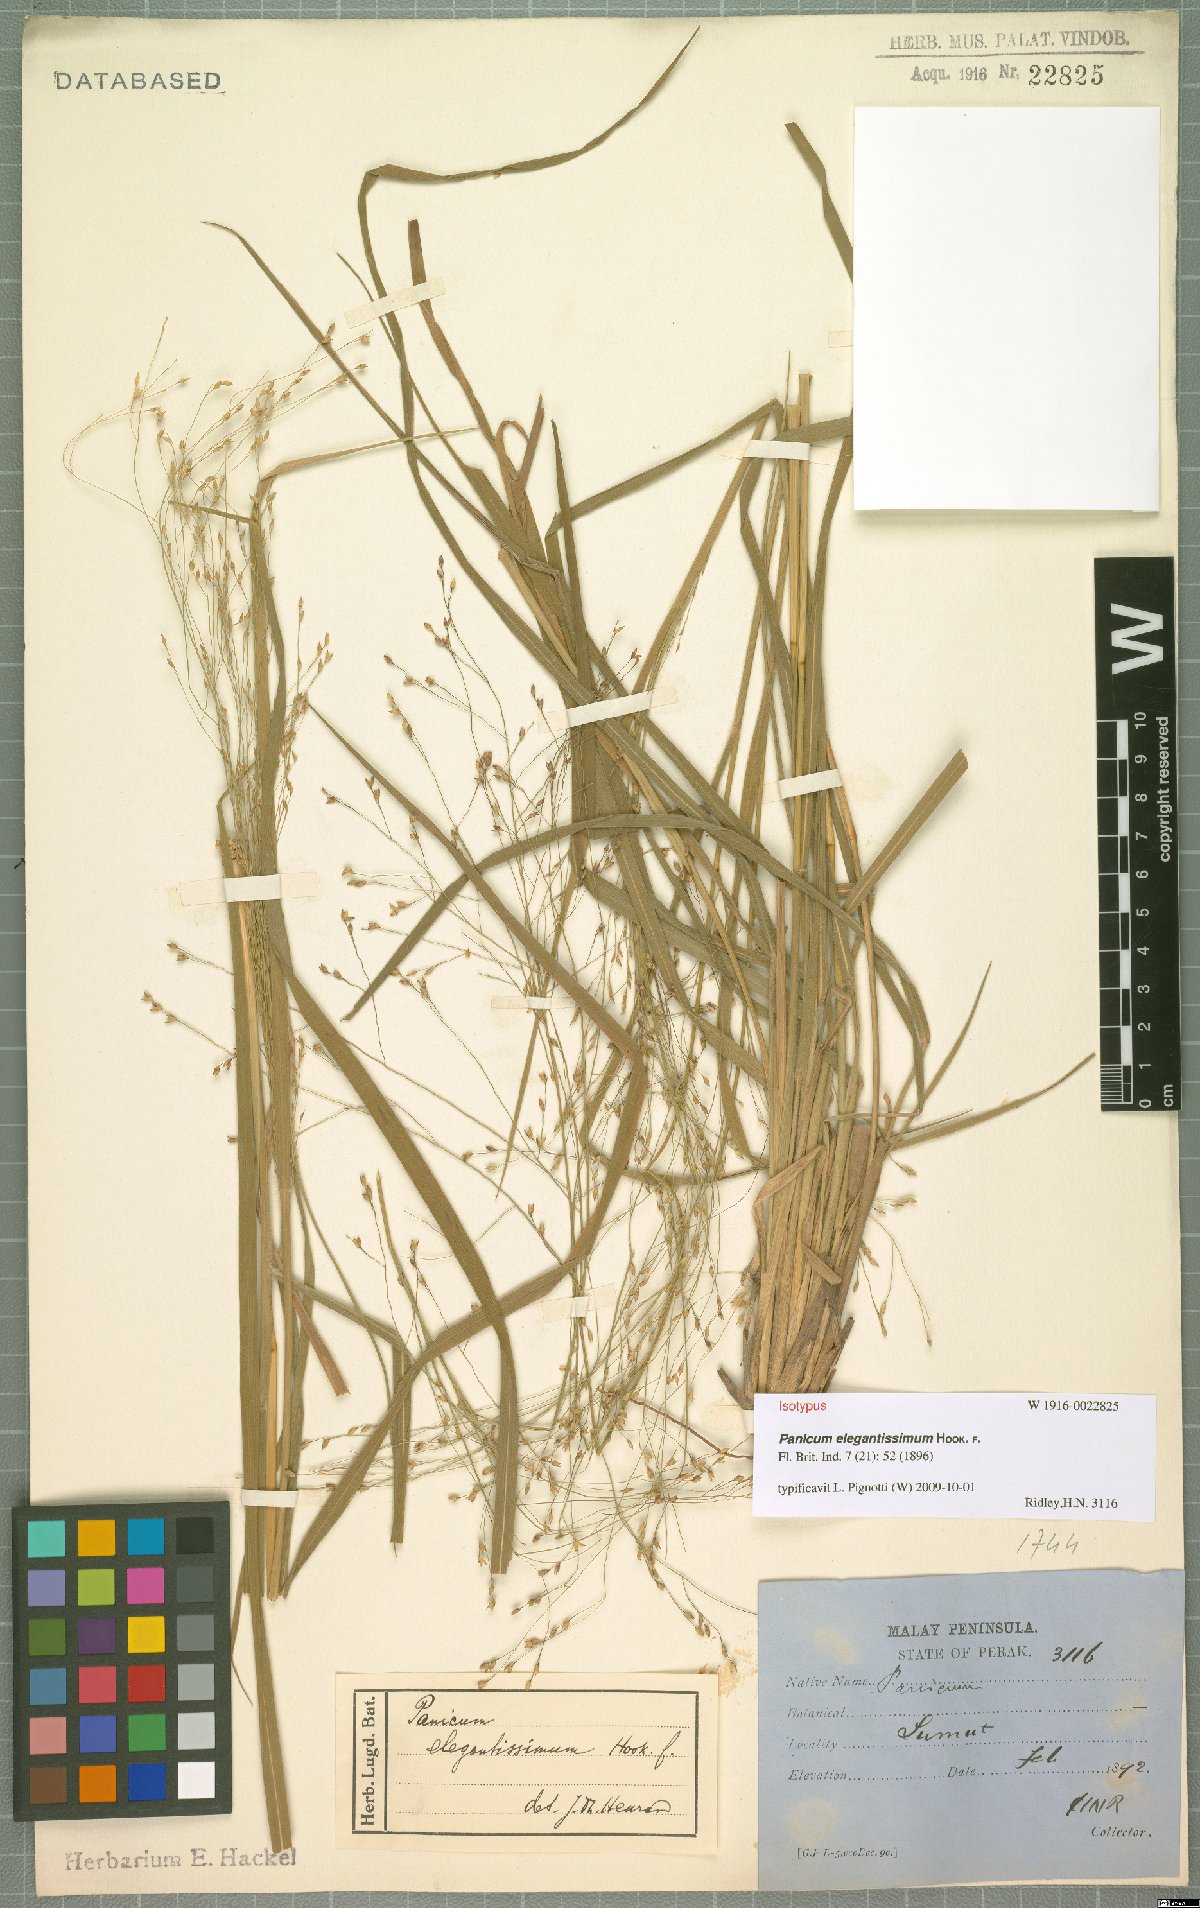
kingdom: Plantae
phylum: Tracheophyta
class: Liliopsida
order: Poales
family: Poaceae
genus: Panicum
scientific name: Panicum elegantissimum
